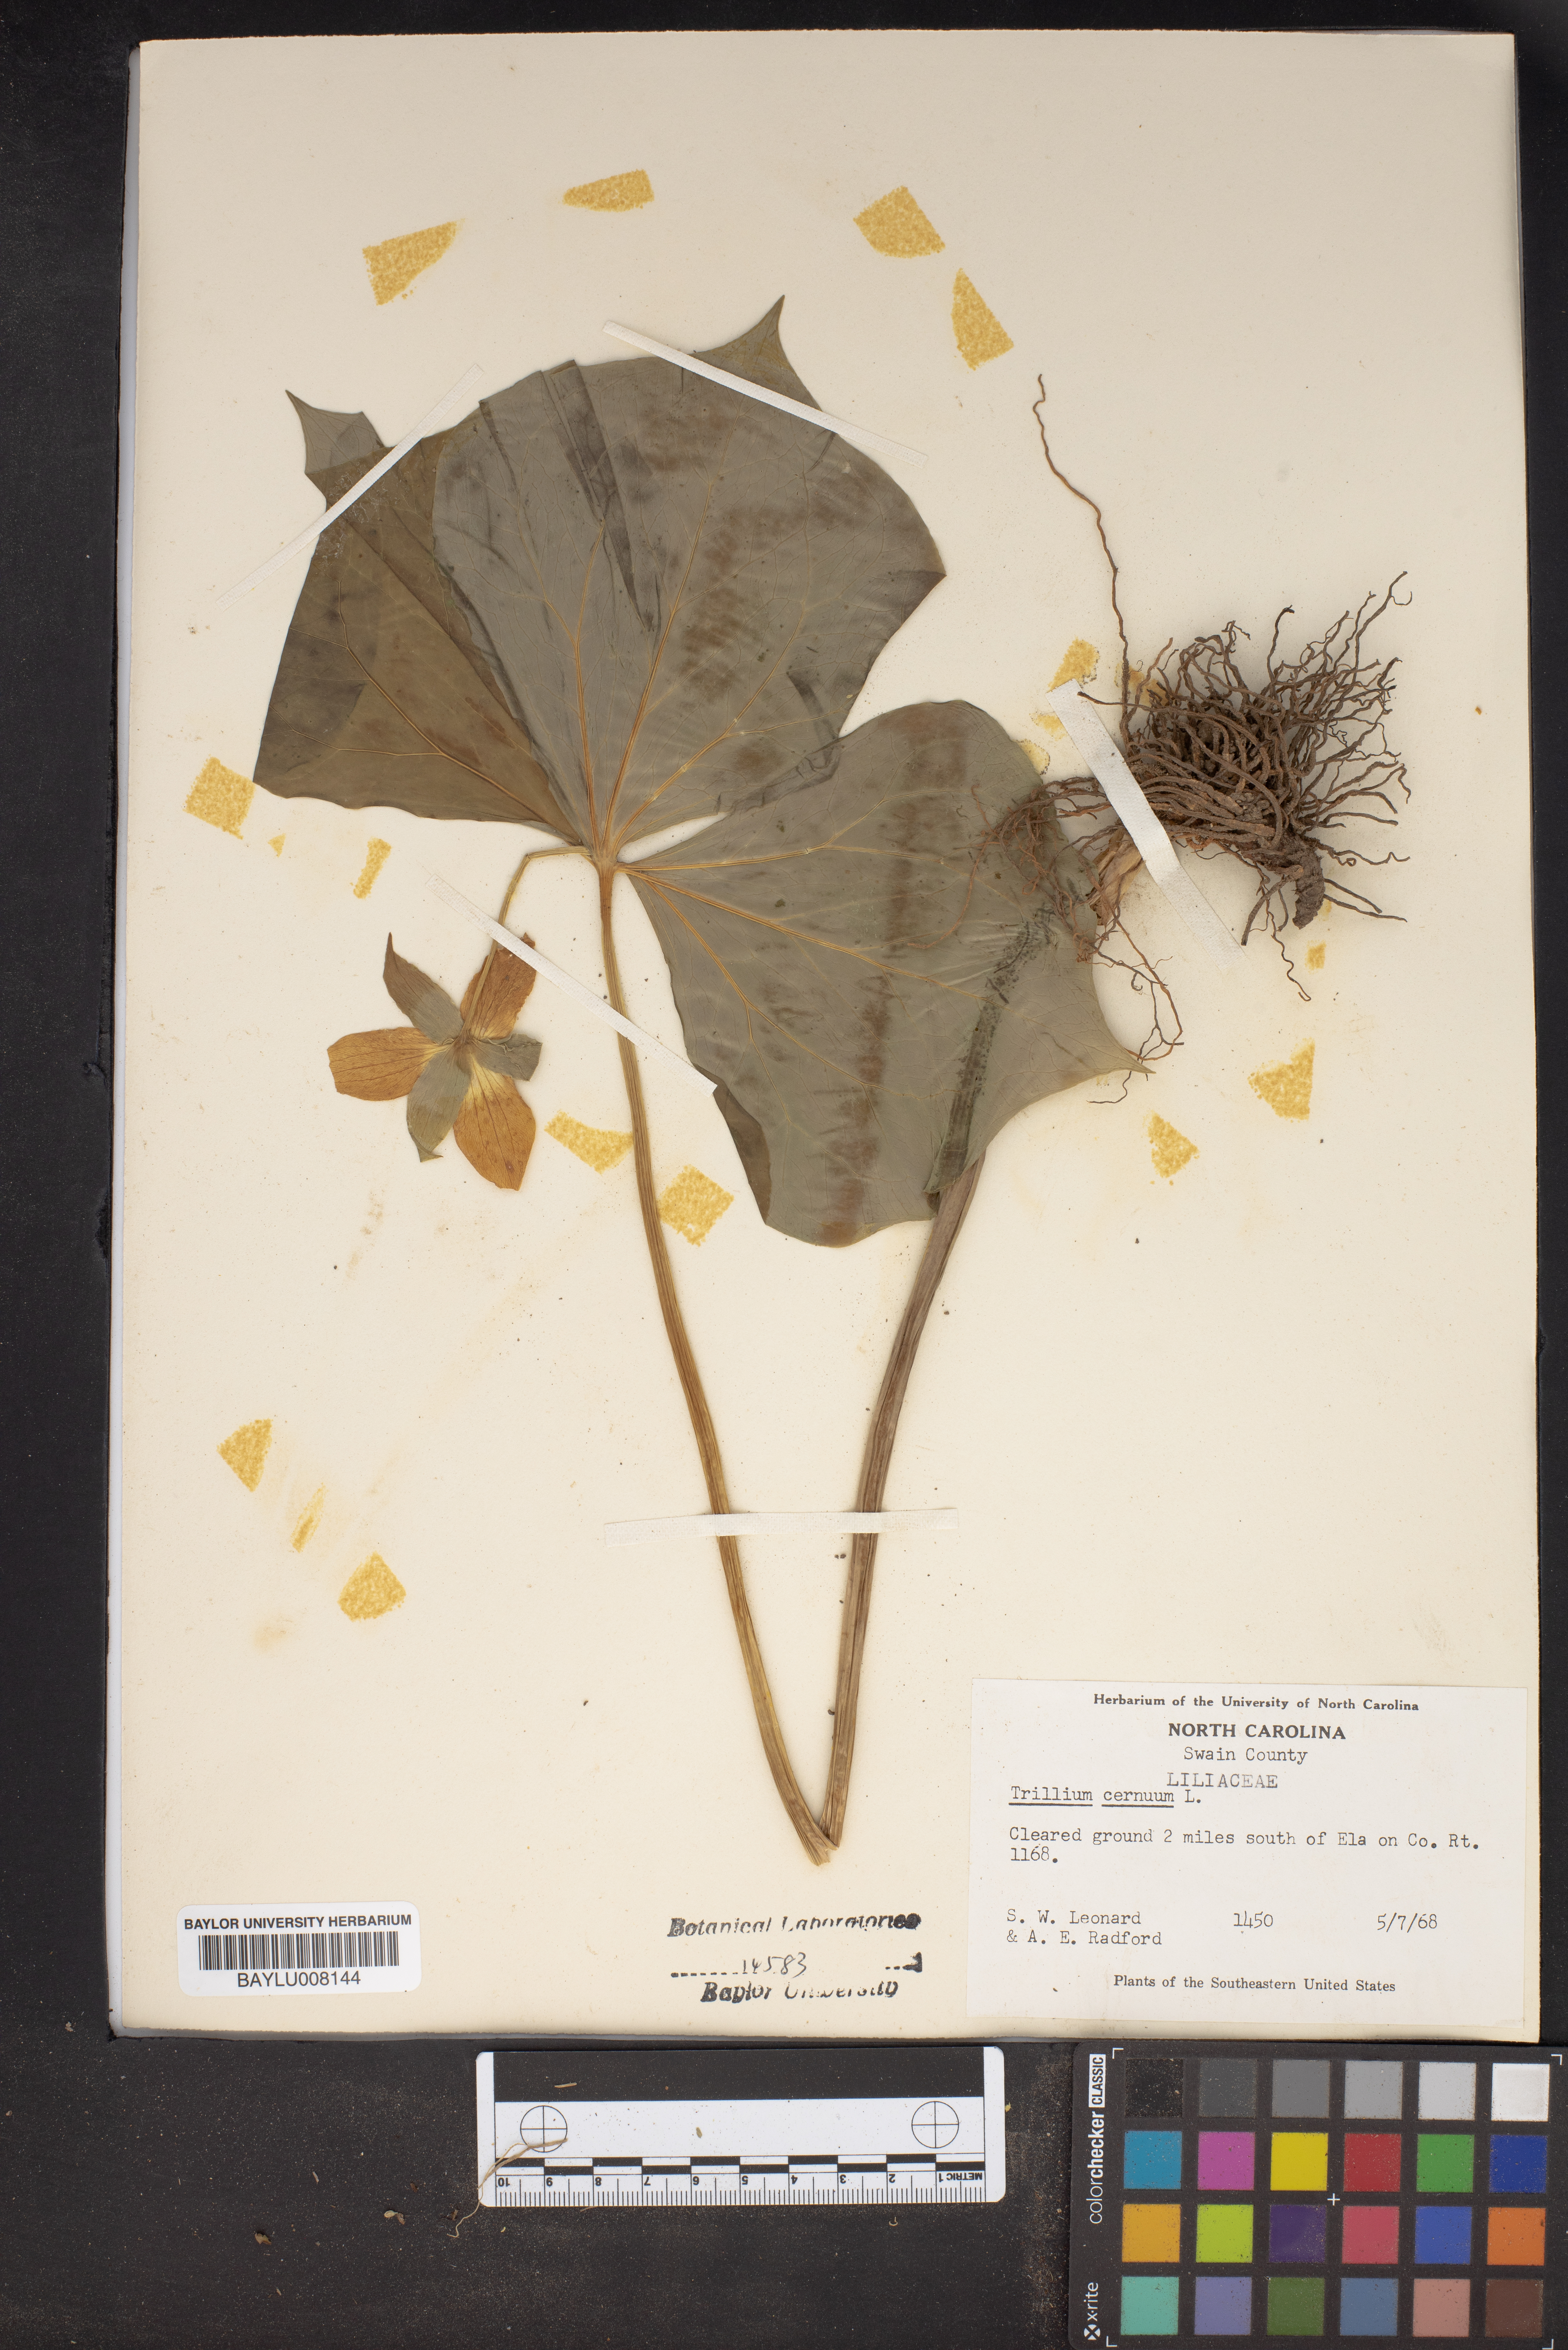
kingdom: Plantae
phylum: Tracheophyta
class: Liliopsida
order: Liliales
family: Melanthiaceae
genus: Trillium
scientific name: Trillium cernuum
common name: Nodding trillium
